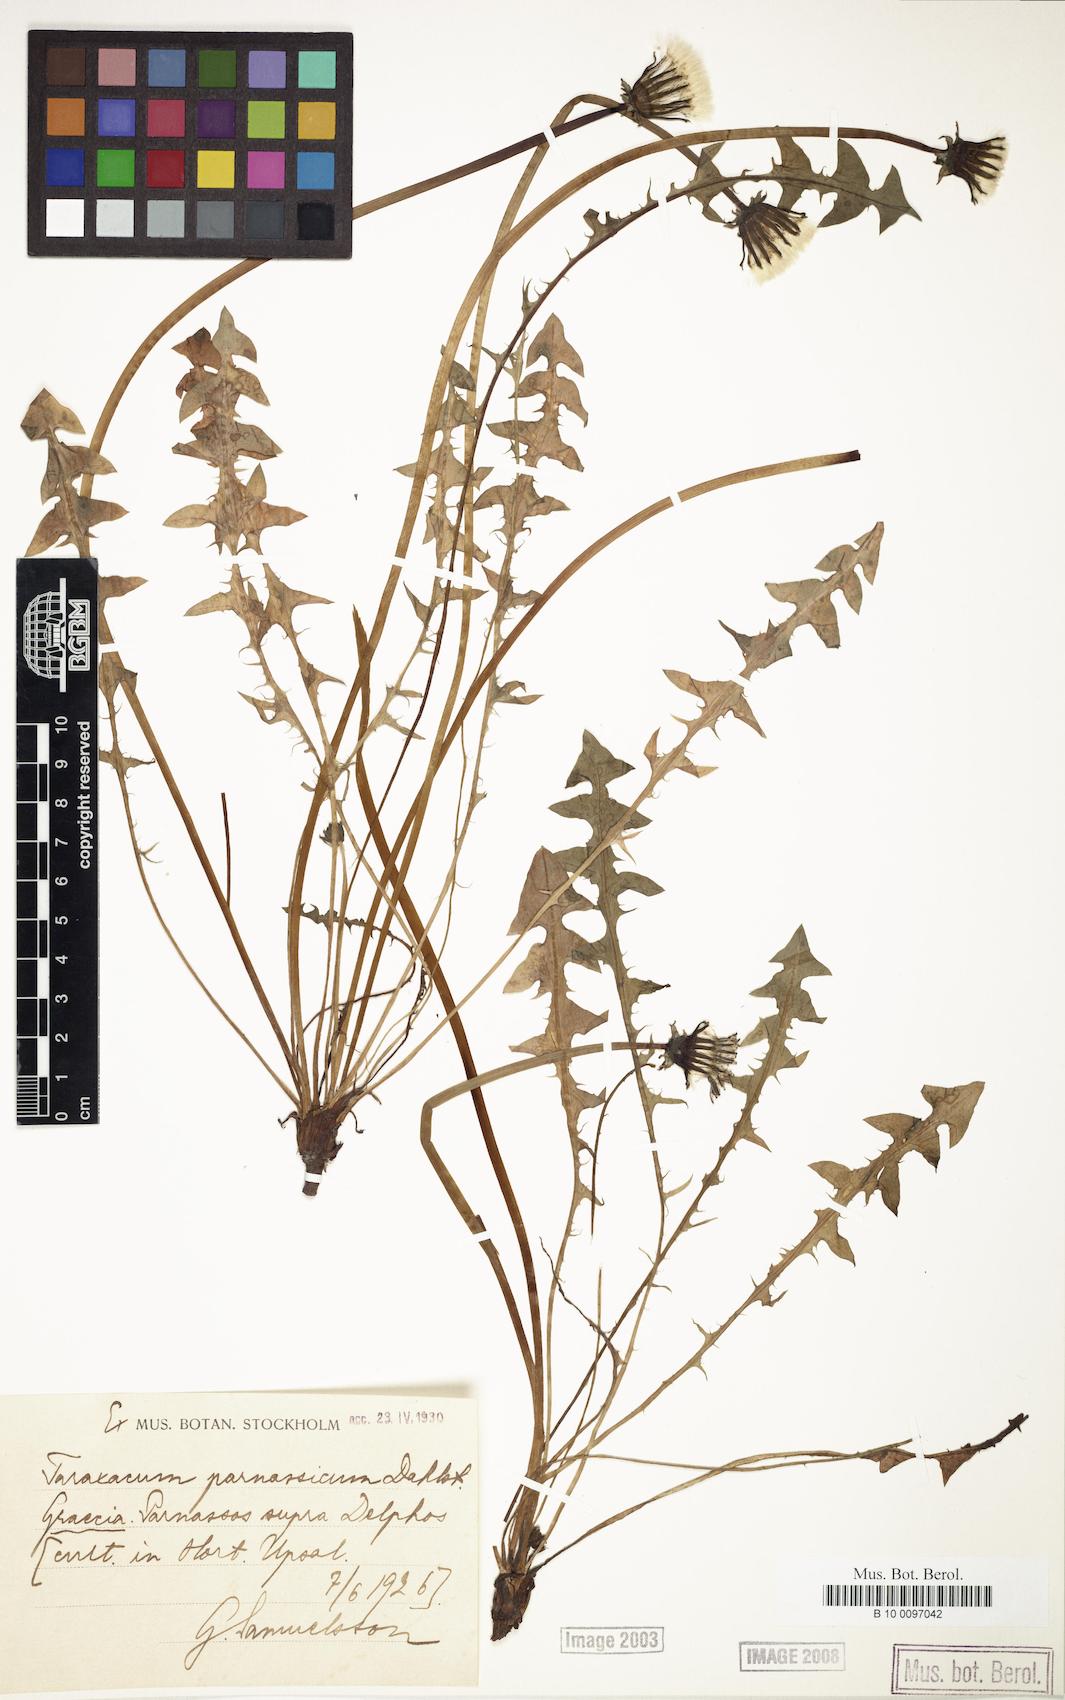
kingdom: Plantae
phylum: Tracheophyta
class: Magnoliopsida
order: Asterales
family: Asteraceae
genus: Taraxacum
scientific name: Taraxacum parnassicum
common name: Parnassus dandelion
